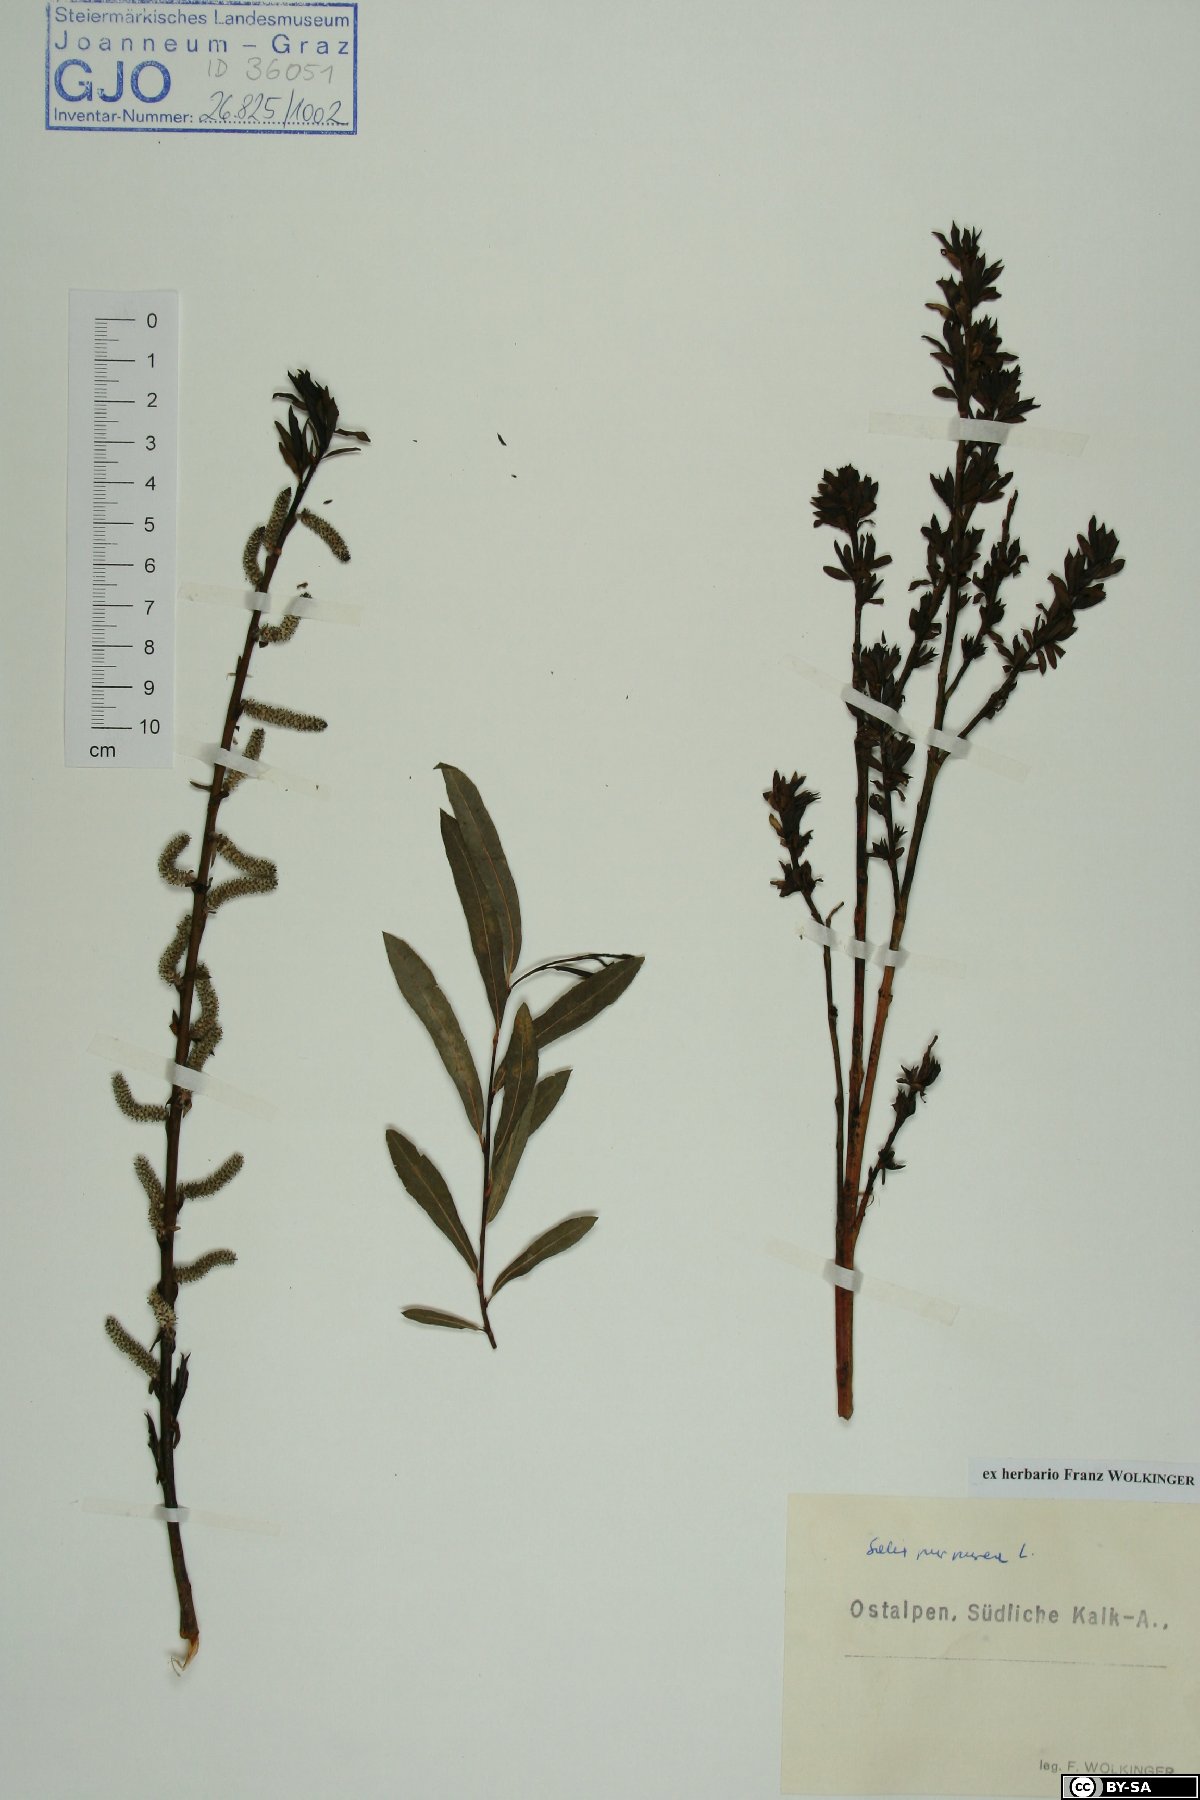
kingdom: Plantae
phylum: Tracheophyta
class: Magnoliopsida
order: Malpighiales
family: Salicaceae
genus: Salix
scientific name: Salix purpurea
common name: Purple willow
